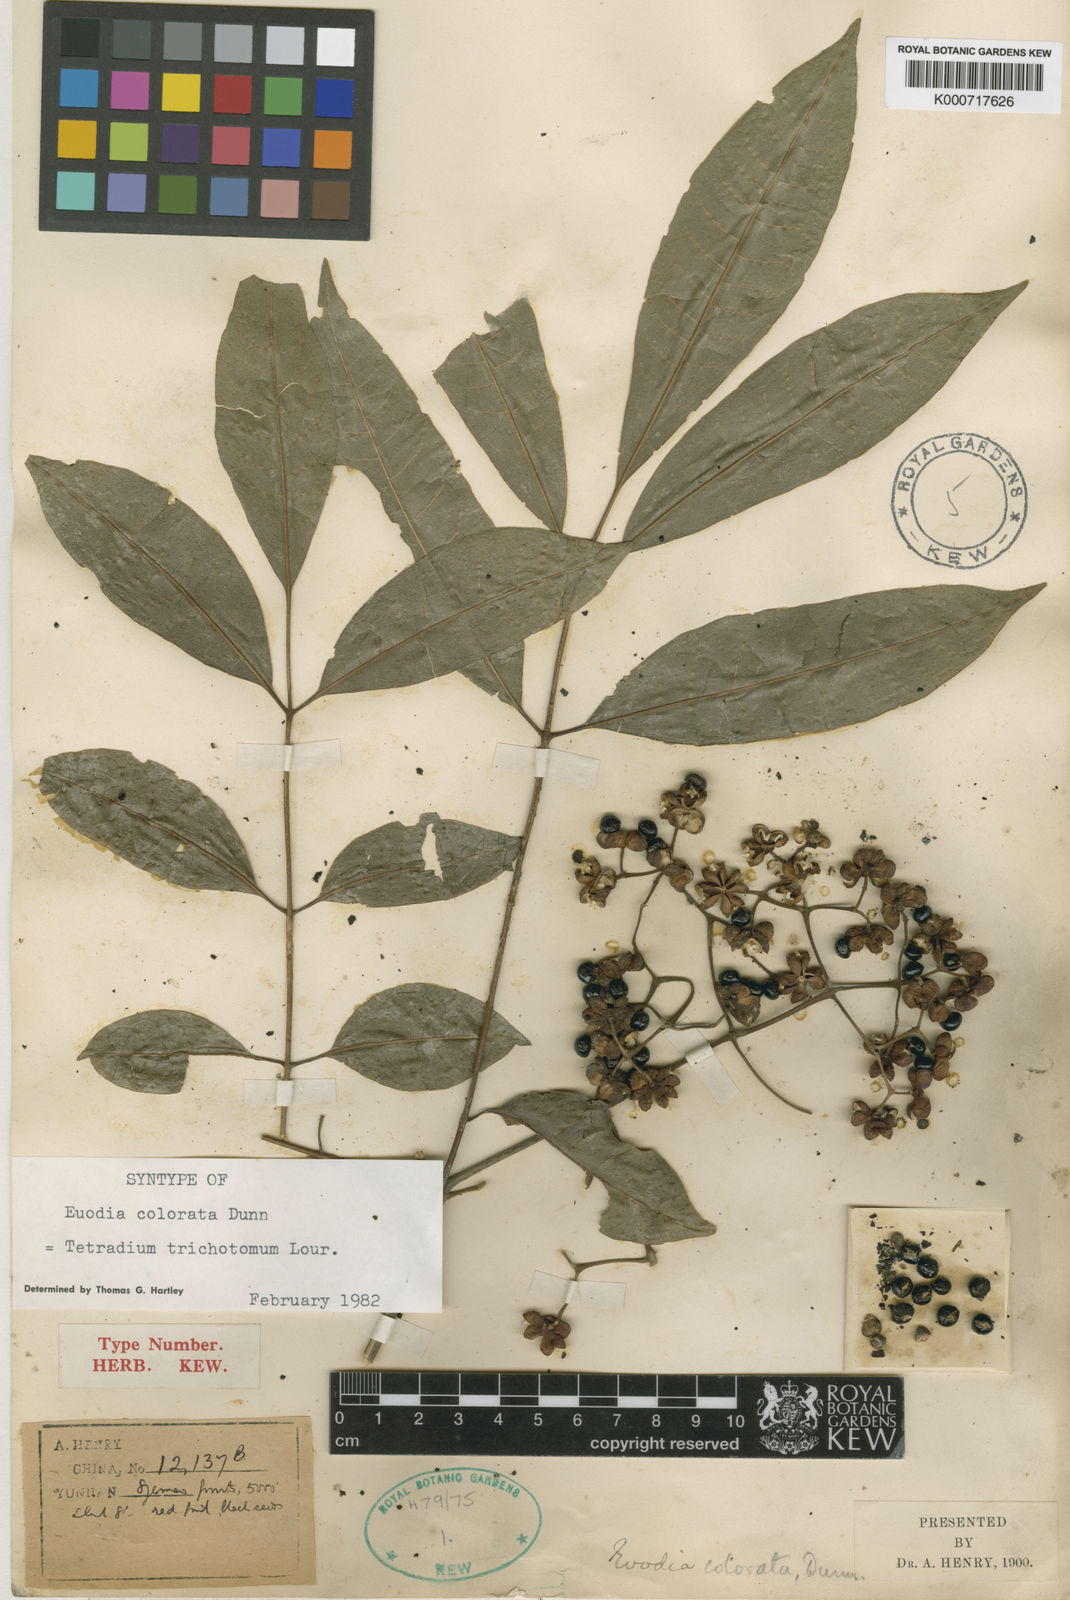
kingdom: Plantae
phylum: Tracheophyta
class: Magnoliopsida
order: Sapindales
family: Rutaceae
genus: Tetradium
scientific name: Tetradium trichotomum
